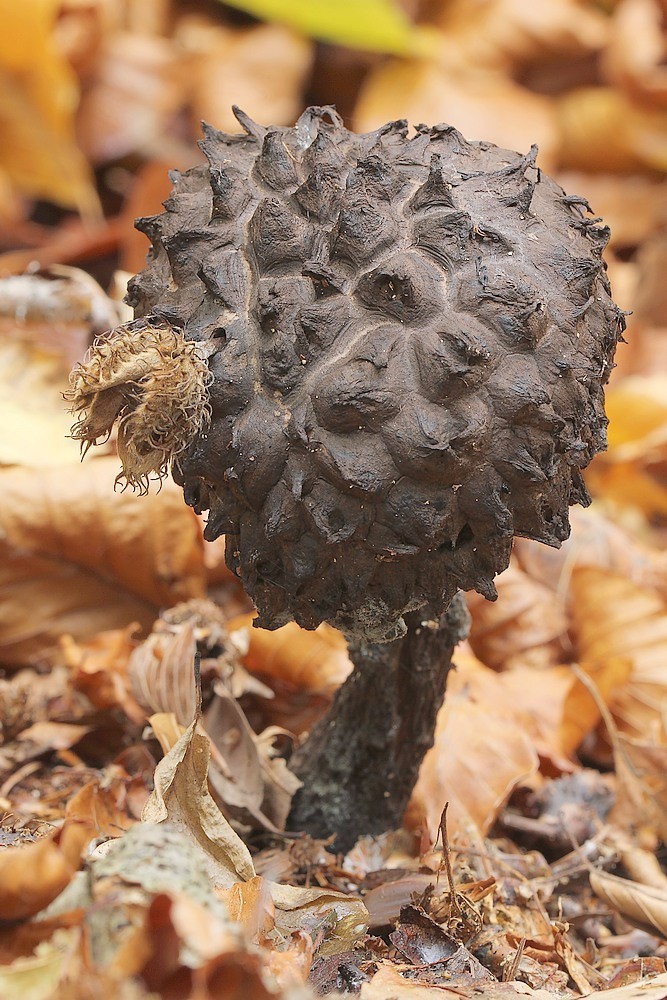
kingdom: Fungi
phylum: Basidiomycota
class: Agaricomycetes
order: Boletales
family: Boletaceae
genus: Strobilomyces
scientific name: Strobilomyces strobilaceus
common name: koglerørhat
